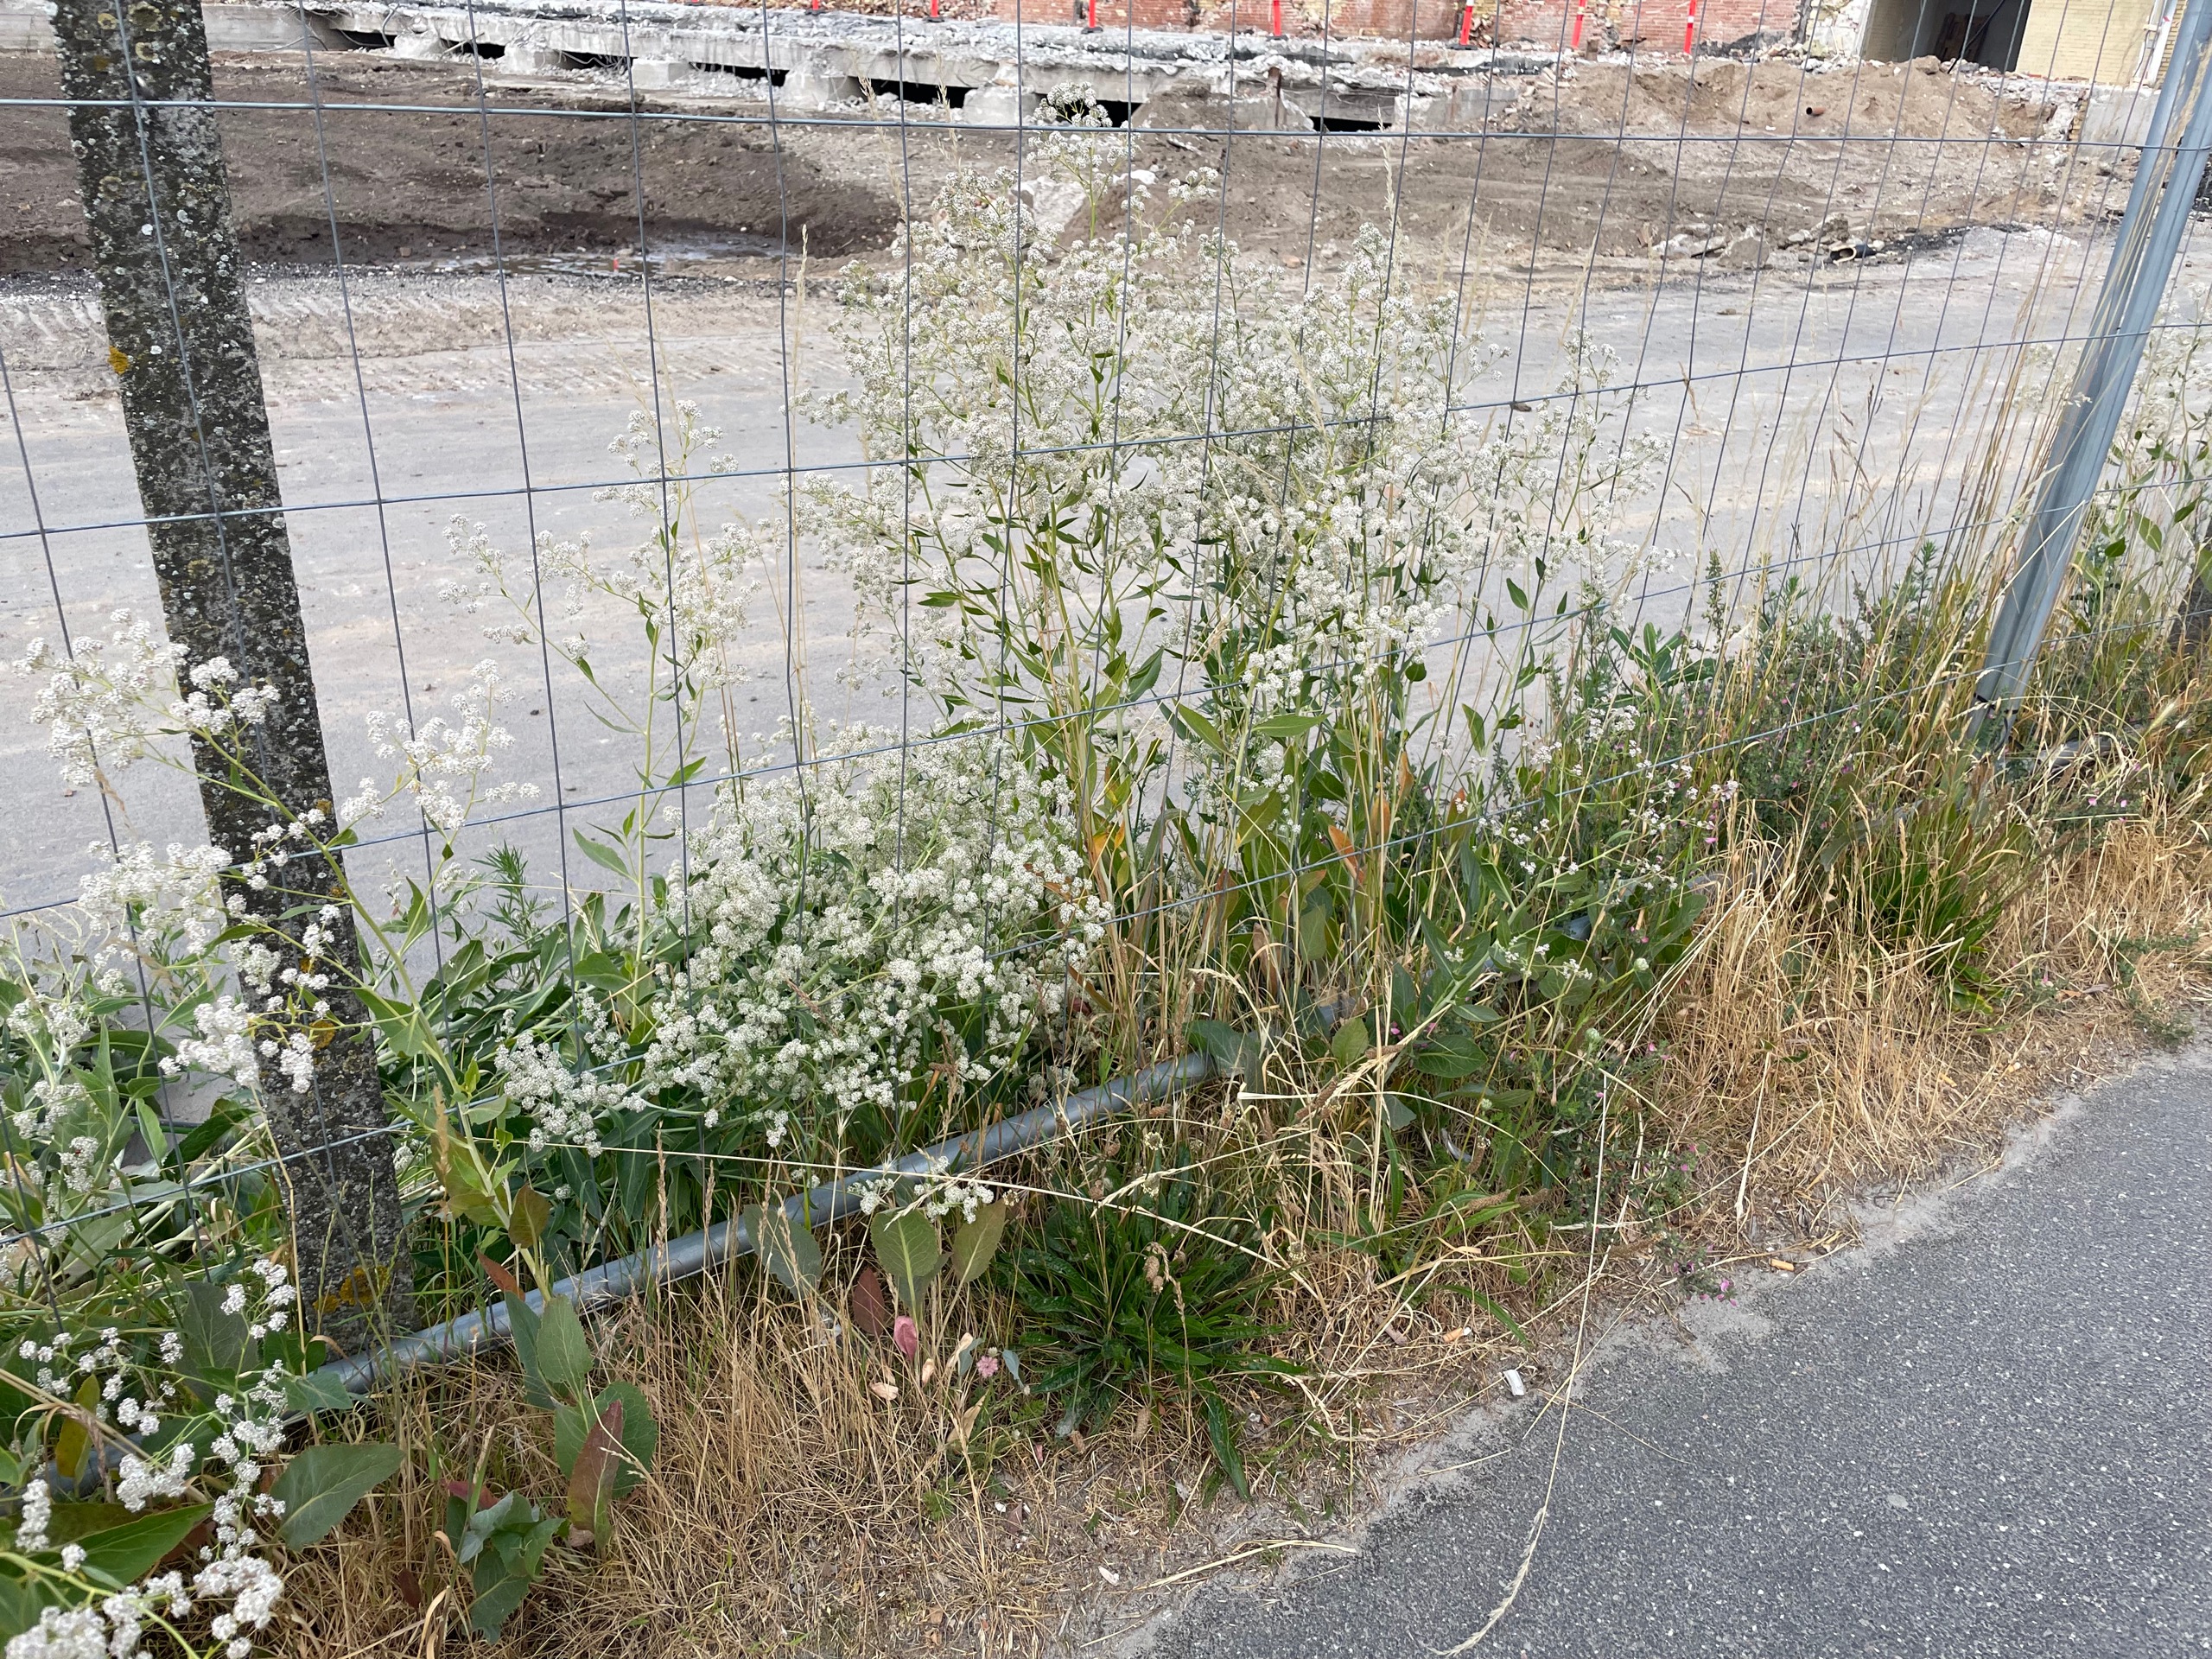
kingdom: Plantae
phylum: Tracheophyta
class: Magnoliopsida
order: Brassicales
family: Brassicaceae
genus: Lepidium
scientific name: Lepidium latifolium
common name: Strand-karse
